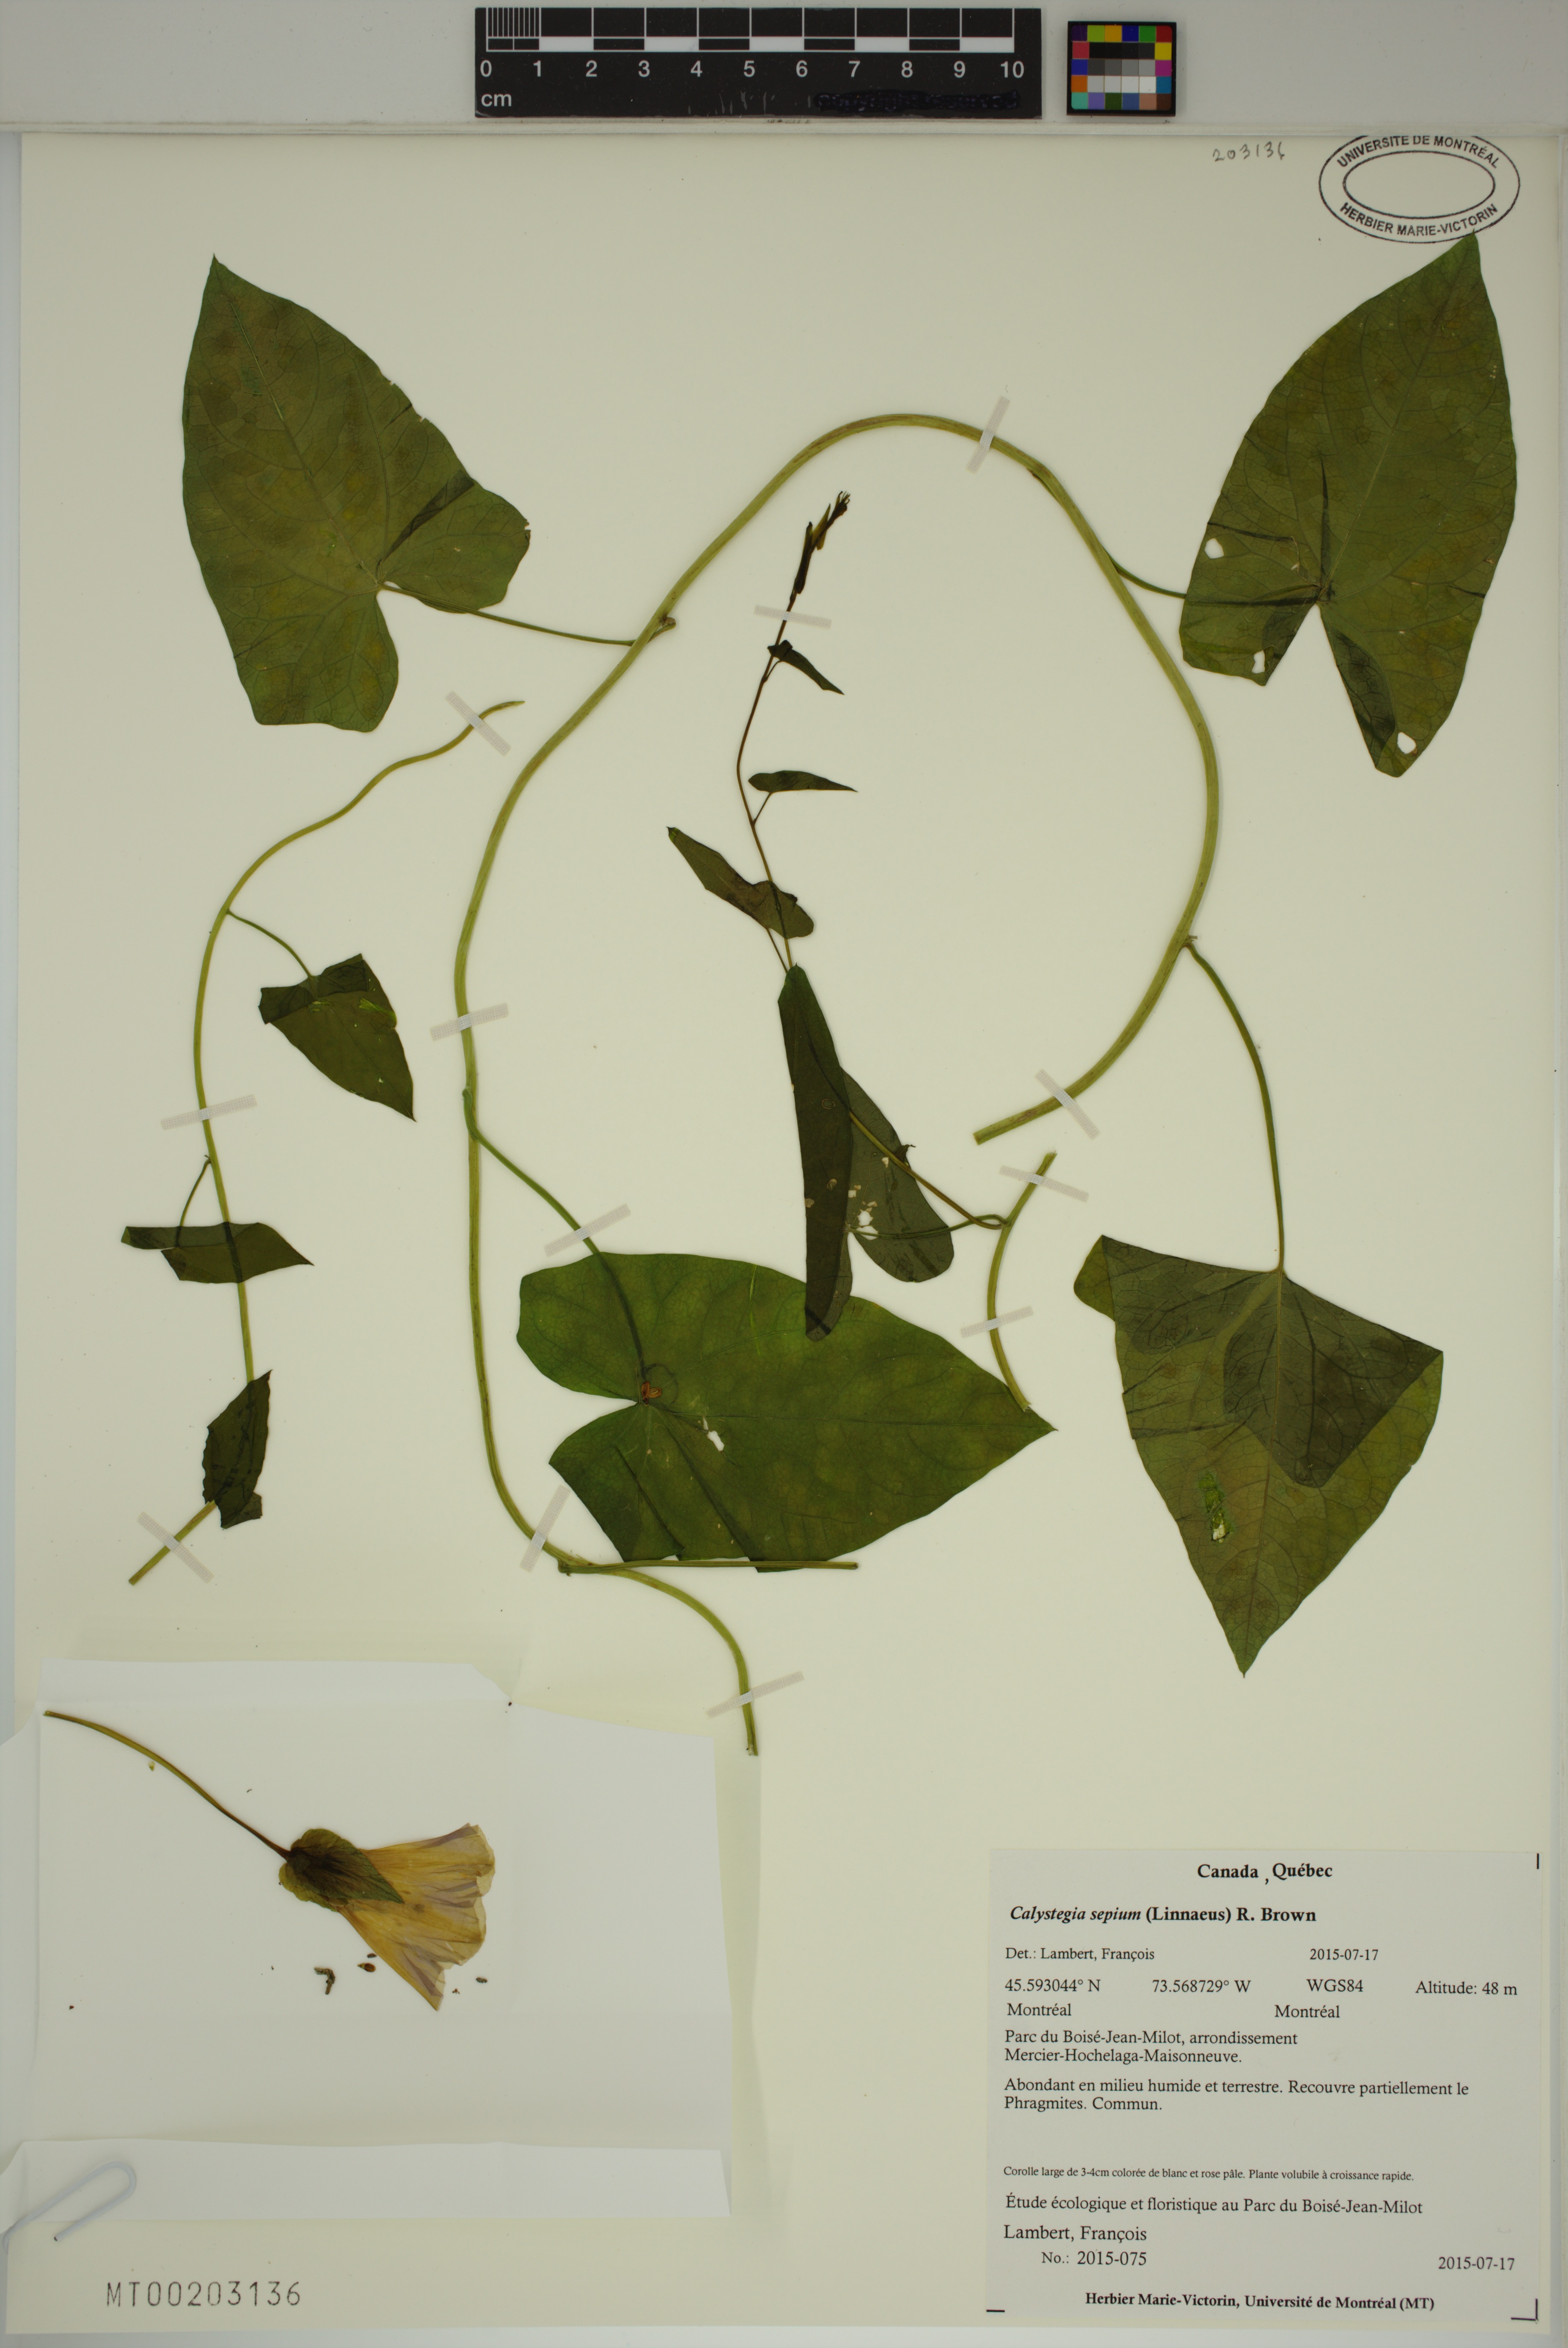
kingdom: Plantae
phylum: Tracheophyta
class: Magnoliopsida
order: Solanales
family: Convolvulaceae
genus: Calystegia
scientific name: Calystegia sepium
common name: Hedge bindweed
